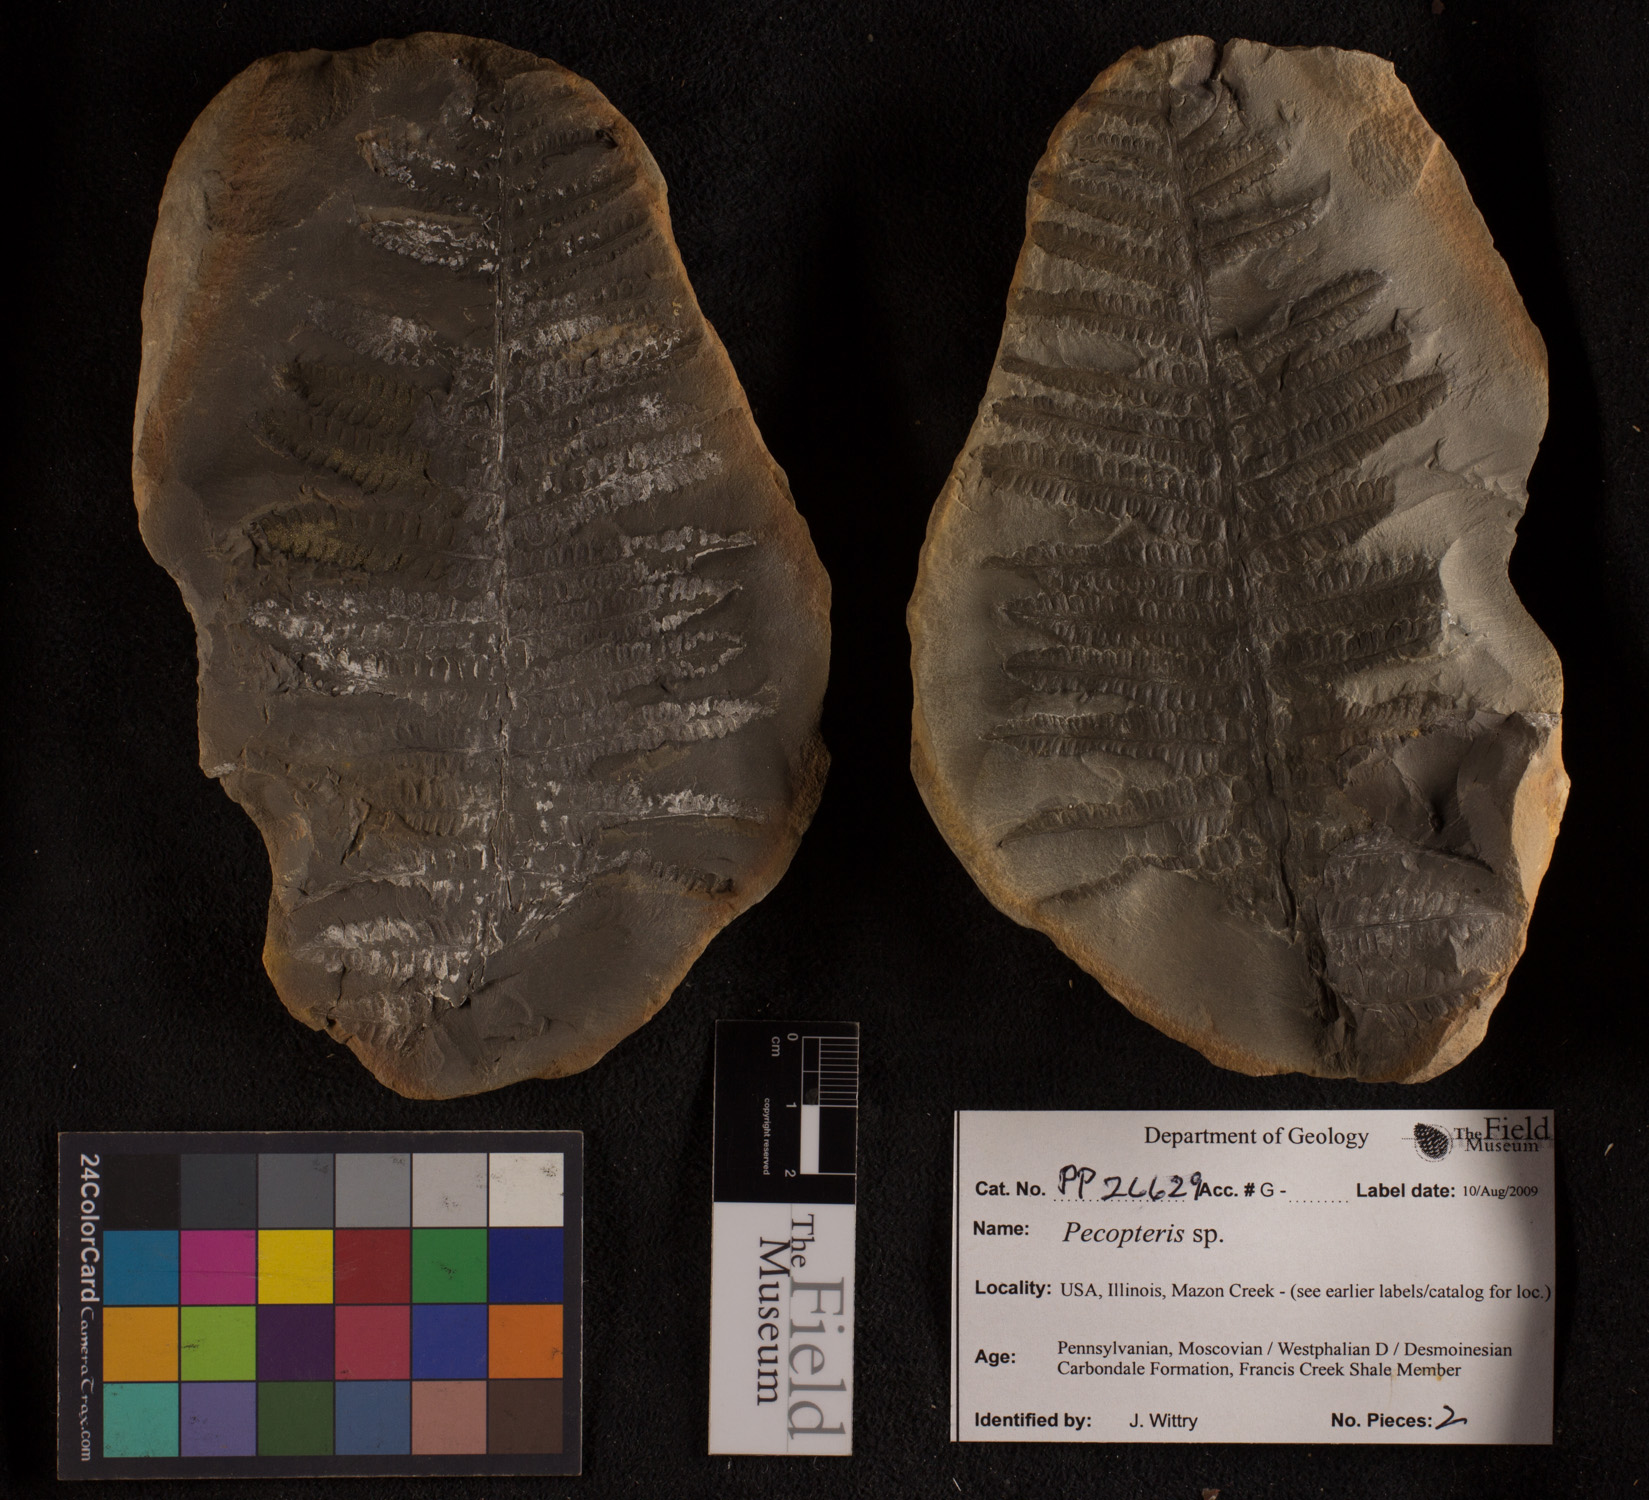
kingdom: Plantae
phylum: Tracheophyta
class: Polypodiopsida
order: Marattiales
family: Asterothecaceae
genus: Pecopteris
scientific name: Pecopteris
